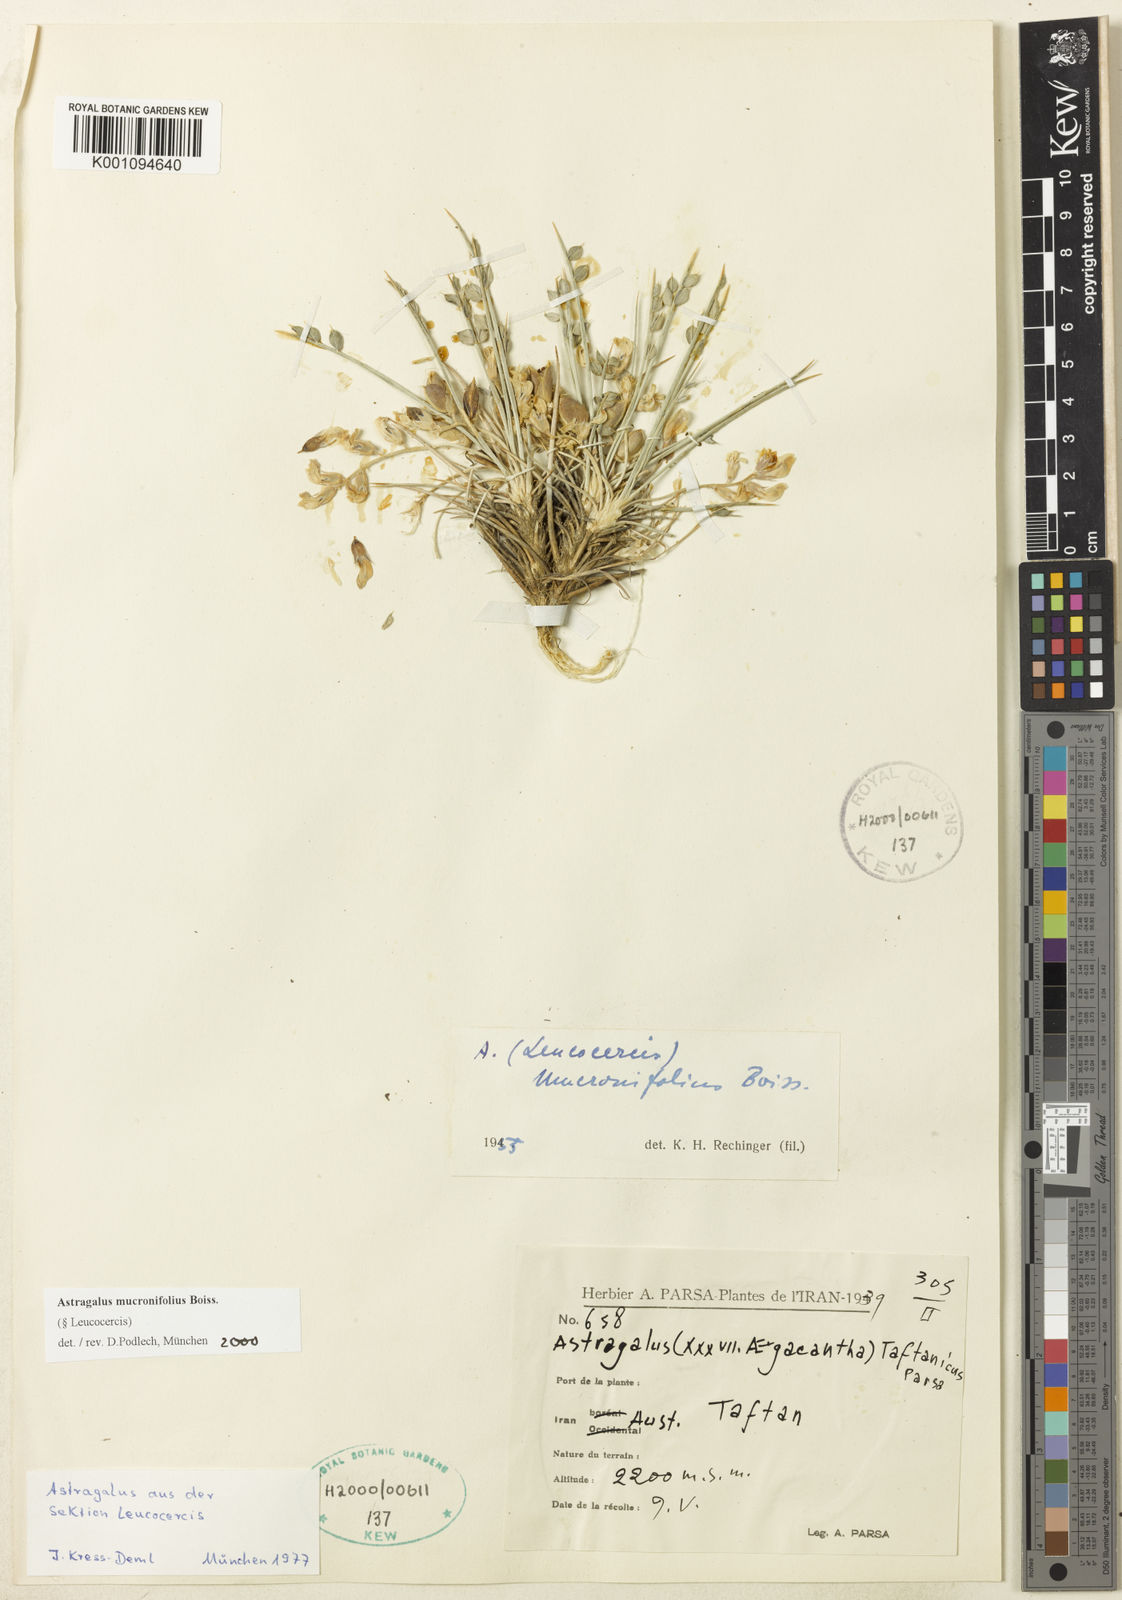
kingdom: Plantae
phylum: Tracheophyta
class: Magnoliopsida
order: Fabales
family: Fabaceae
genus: Astragalus
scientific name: Astragalus
